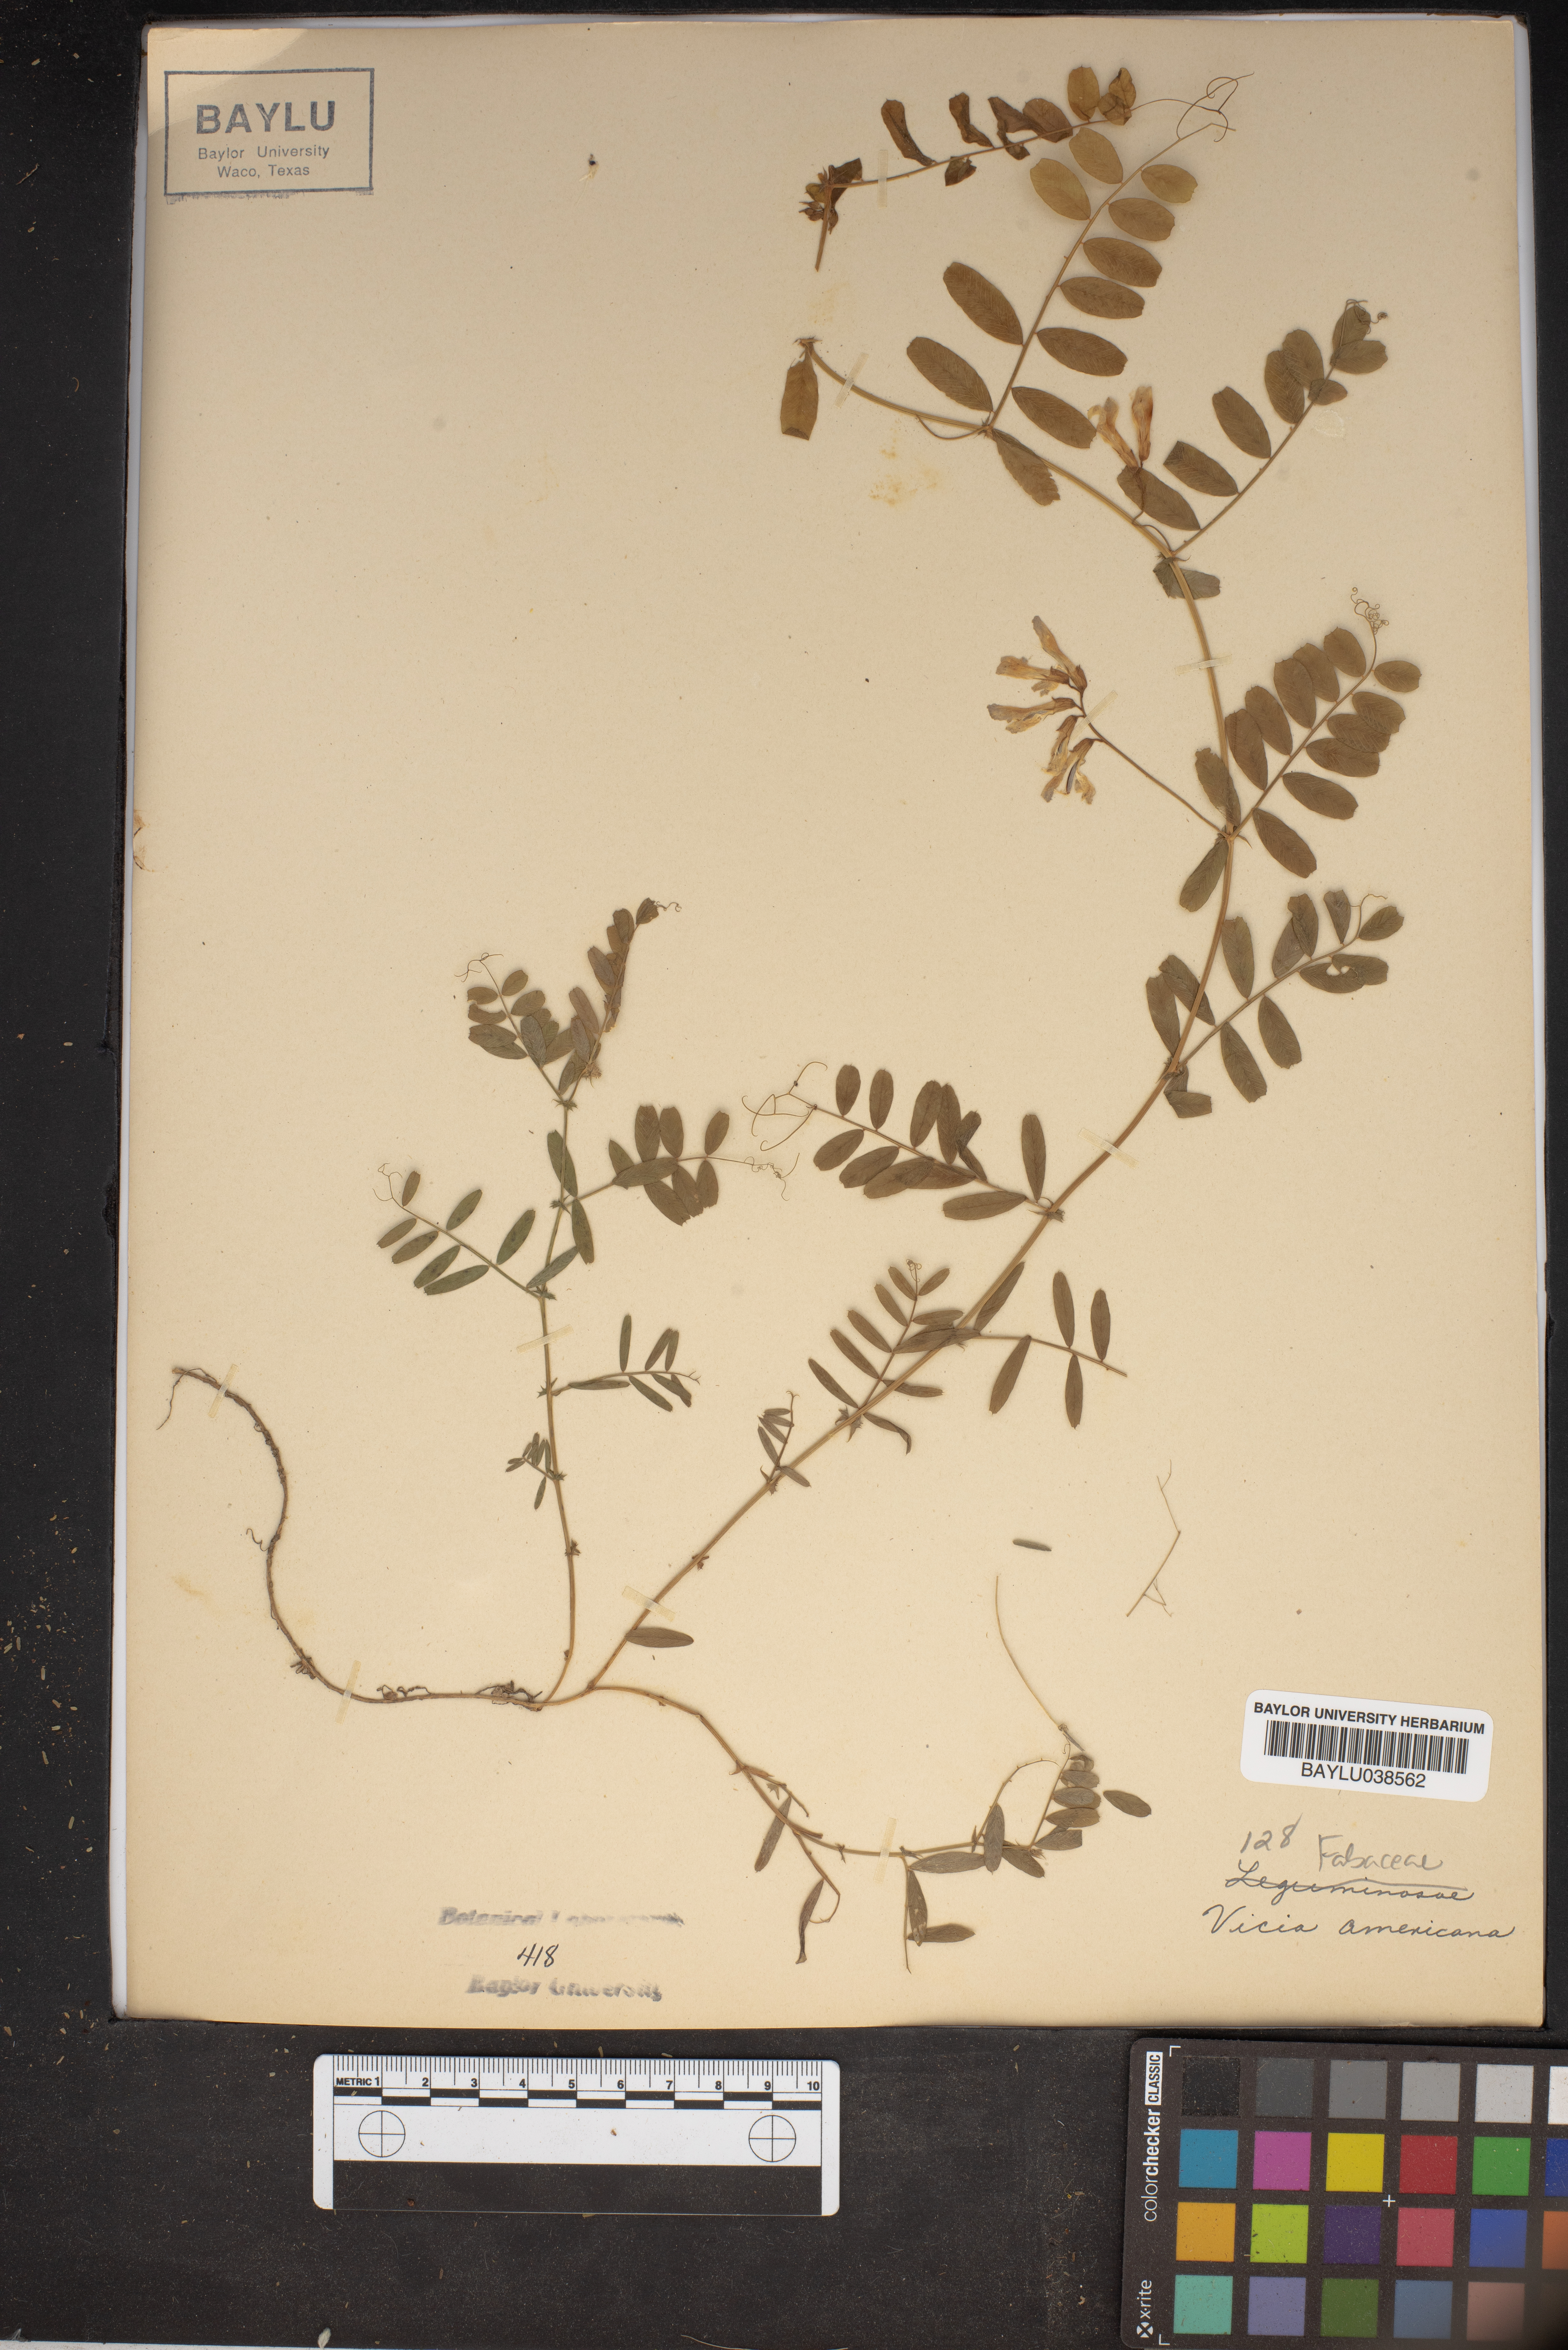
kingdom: Plantae
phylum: Tracheophyta
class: Magnoliopsida
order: Fabales
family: Fabaceae
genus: Vicia
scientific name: Vicia americana
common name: American vetch
